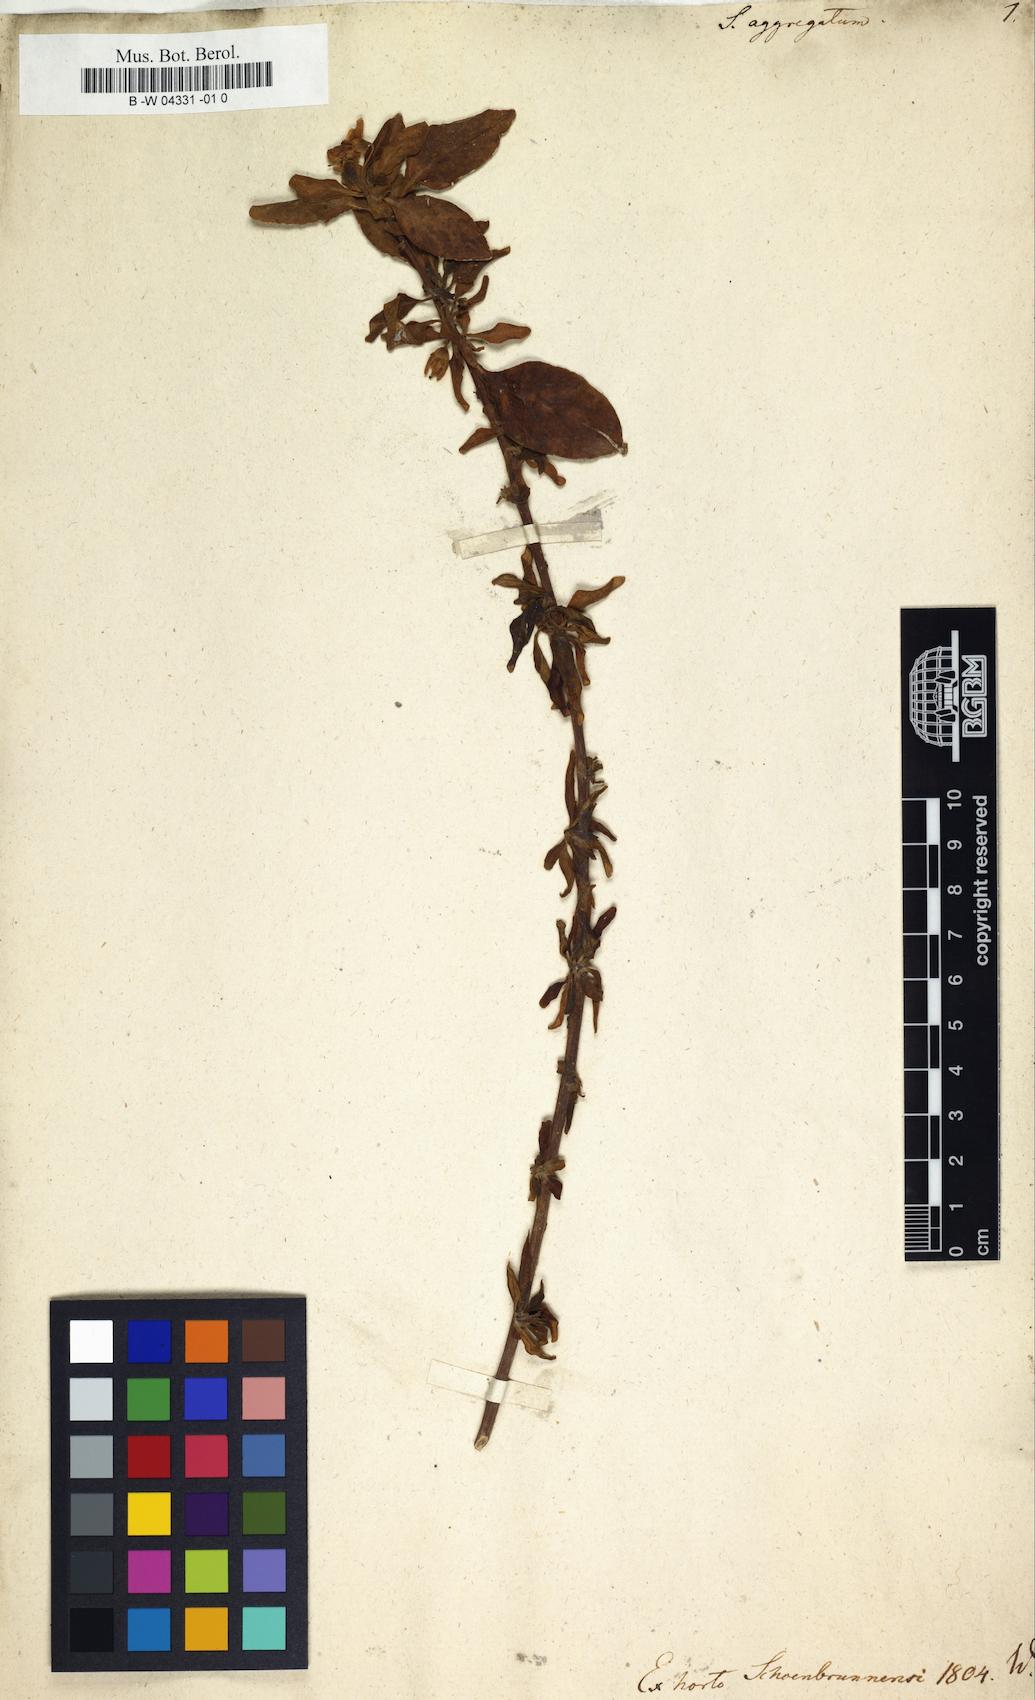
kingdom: Plantae
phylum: Tracheophyta
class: Magnoliopsida
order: Solanales
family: Solanaceae
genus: Solanum
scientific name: Solanum guineense
